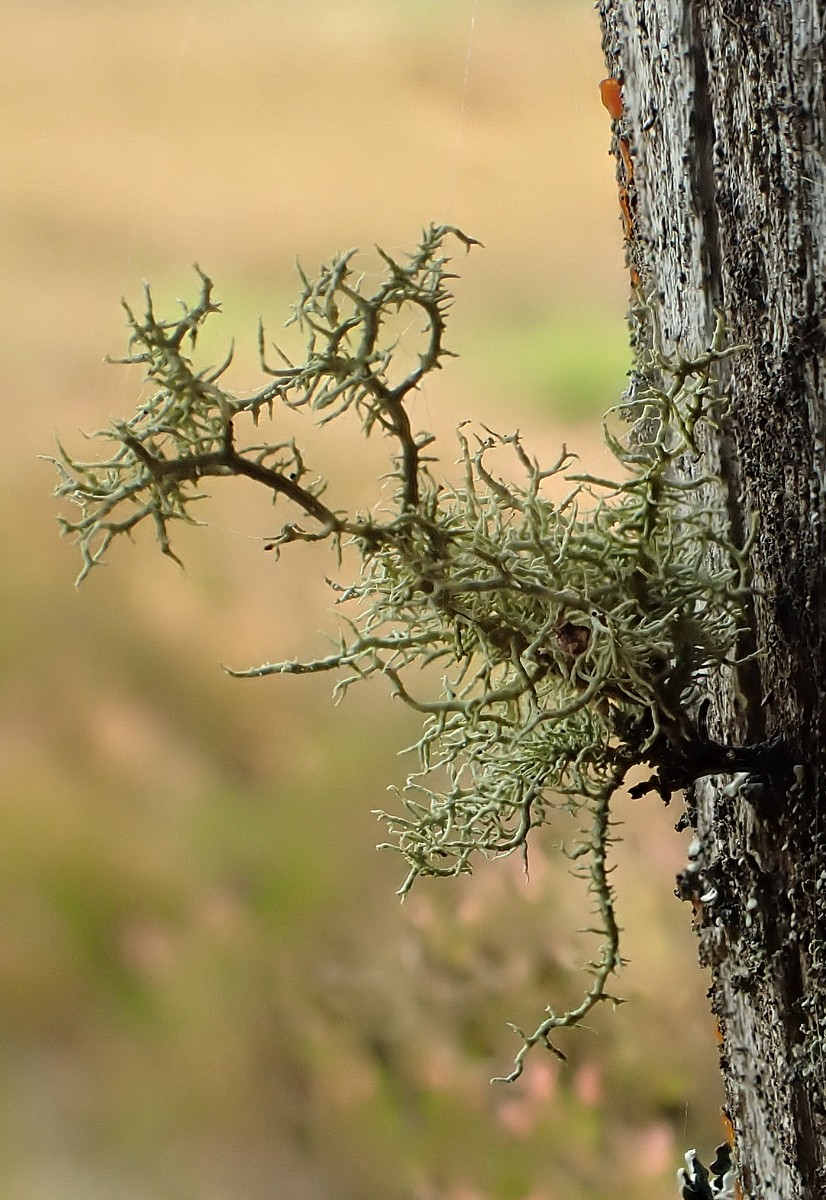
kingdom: Fungi
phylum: Ascomycota
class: Lecanoromycetes
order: Lecanorales
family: Parmeliaceae
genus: Usnea
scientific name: Usnea hirta
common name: liden skæglav
